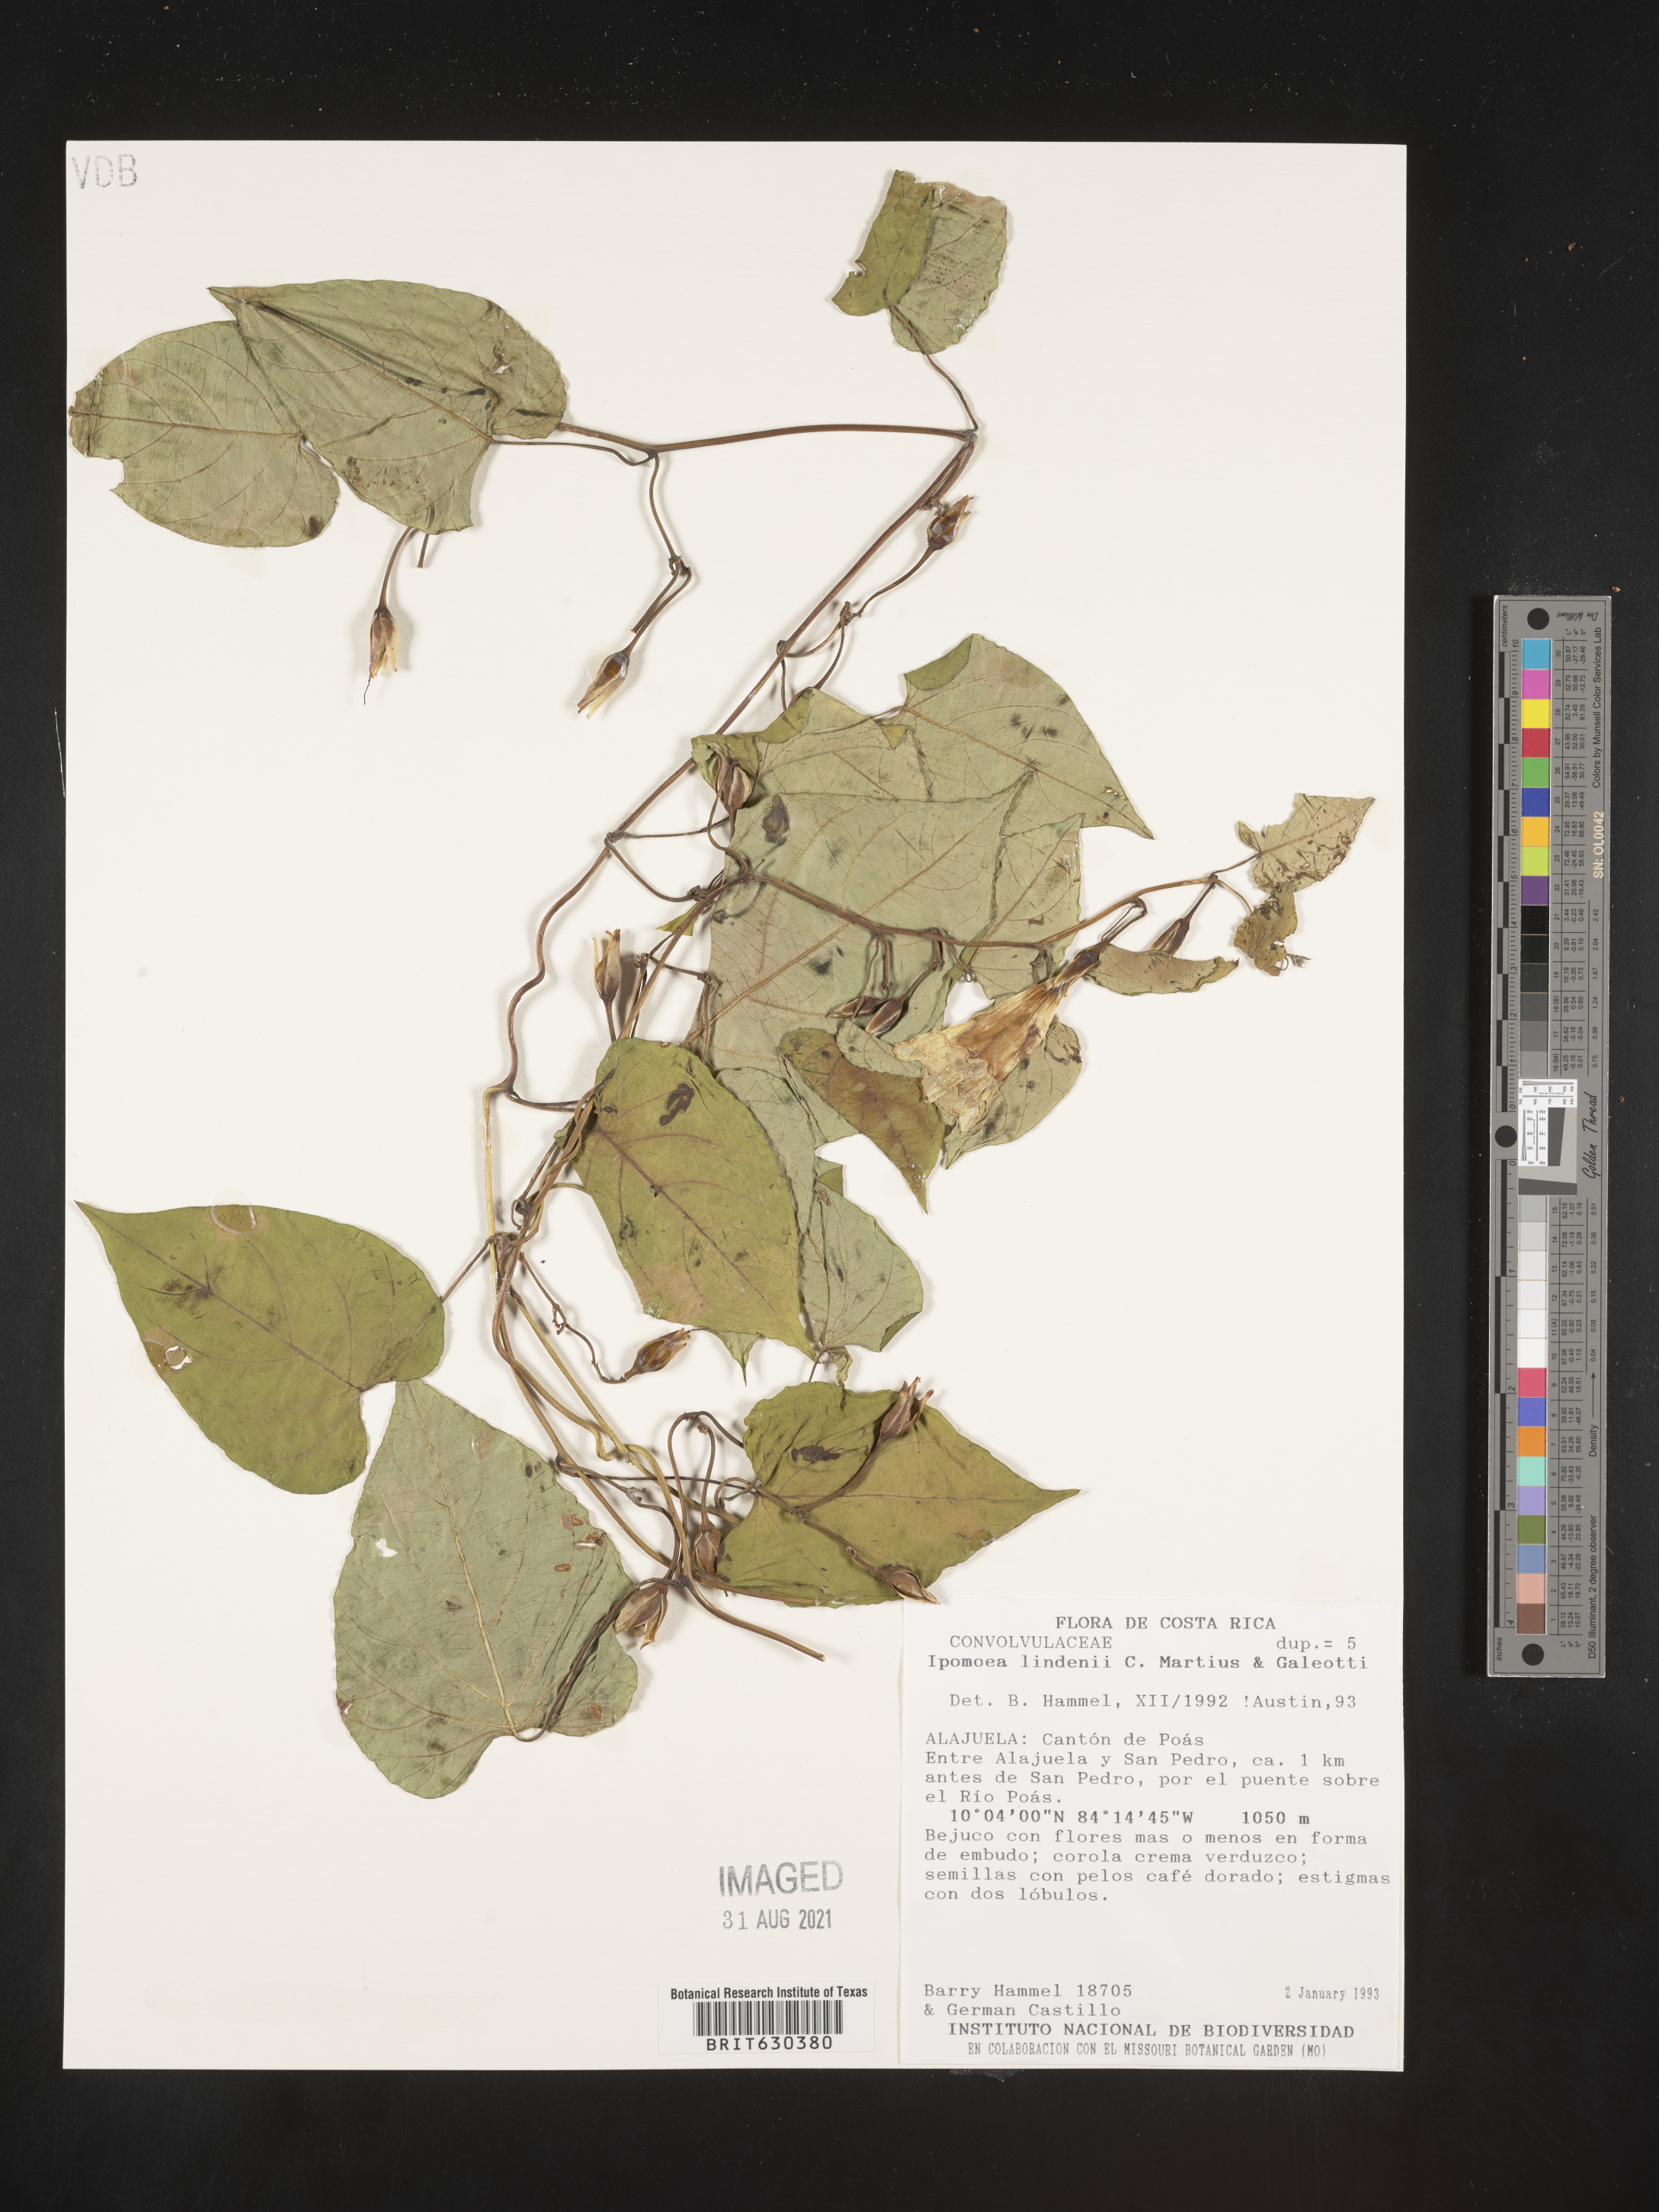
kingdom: Plantae
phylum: Tracheophyta
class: Magnoliopsida
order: Solanales
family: Convolvulaceae
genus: Ipomoea
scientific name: Ipomoea lindenii
